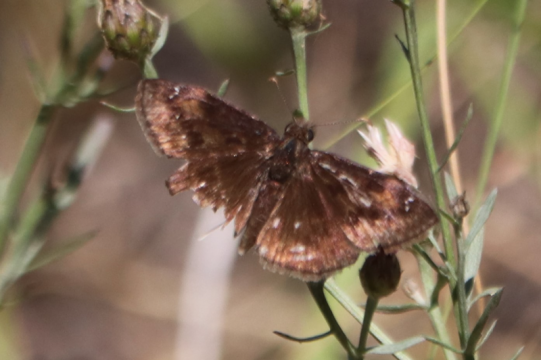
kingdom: Animalia
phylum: Arthropoda
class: Insecta
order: Lepidoptera
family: Hesperiidae
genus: Gesta
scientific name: Gesta
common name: Wild Indigo Duskywing
